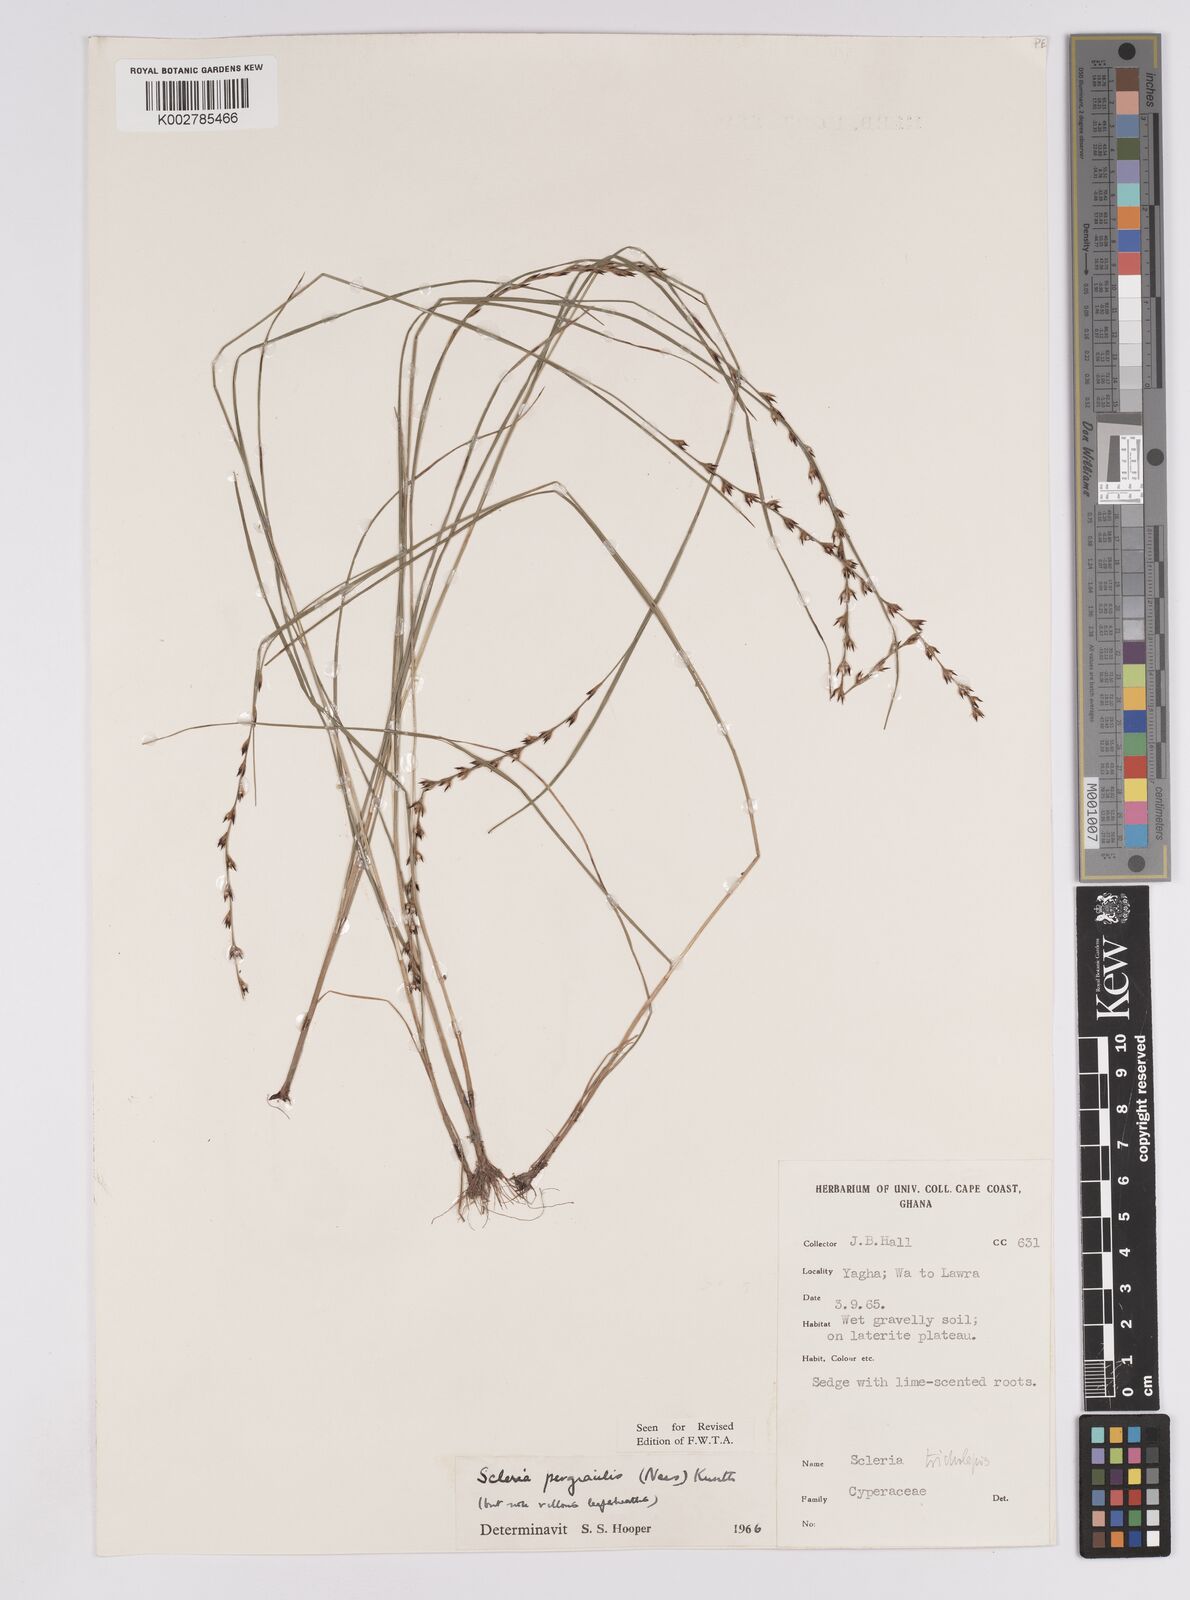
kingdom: Plantae
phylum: Tracheophyta
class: Liliopsida
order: Poales
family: Cyperaceae
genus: Scleria
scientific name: Scleria pergracilis
